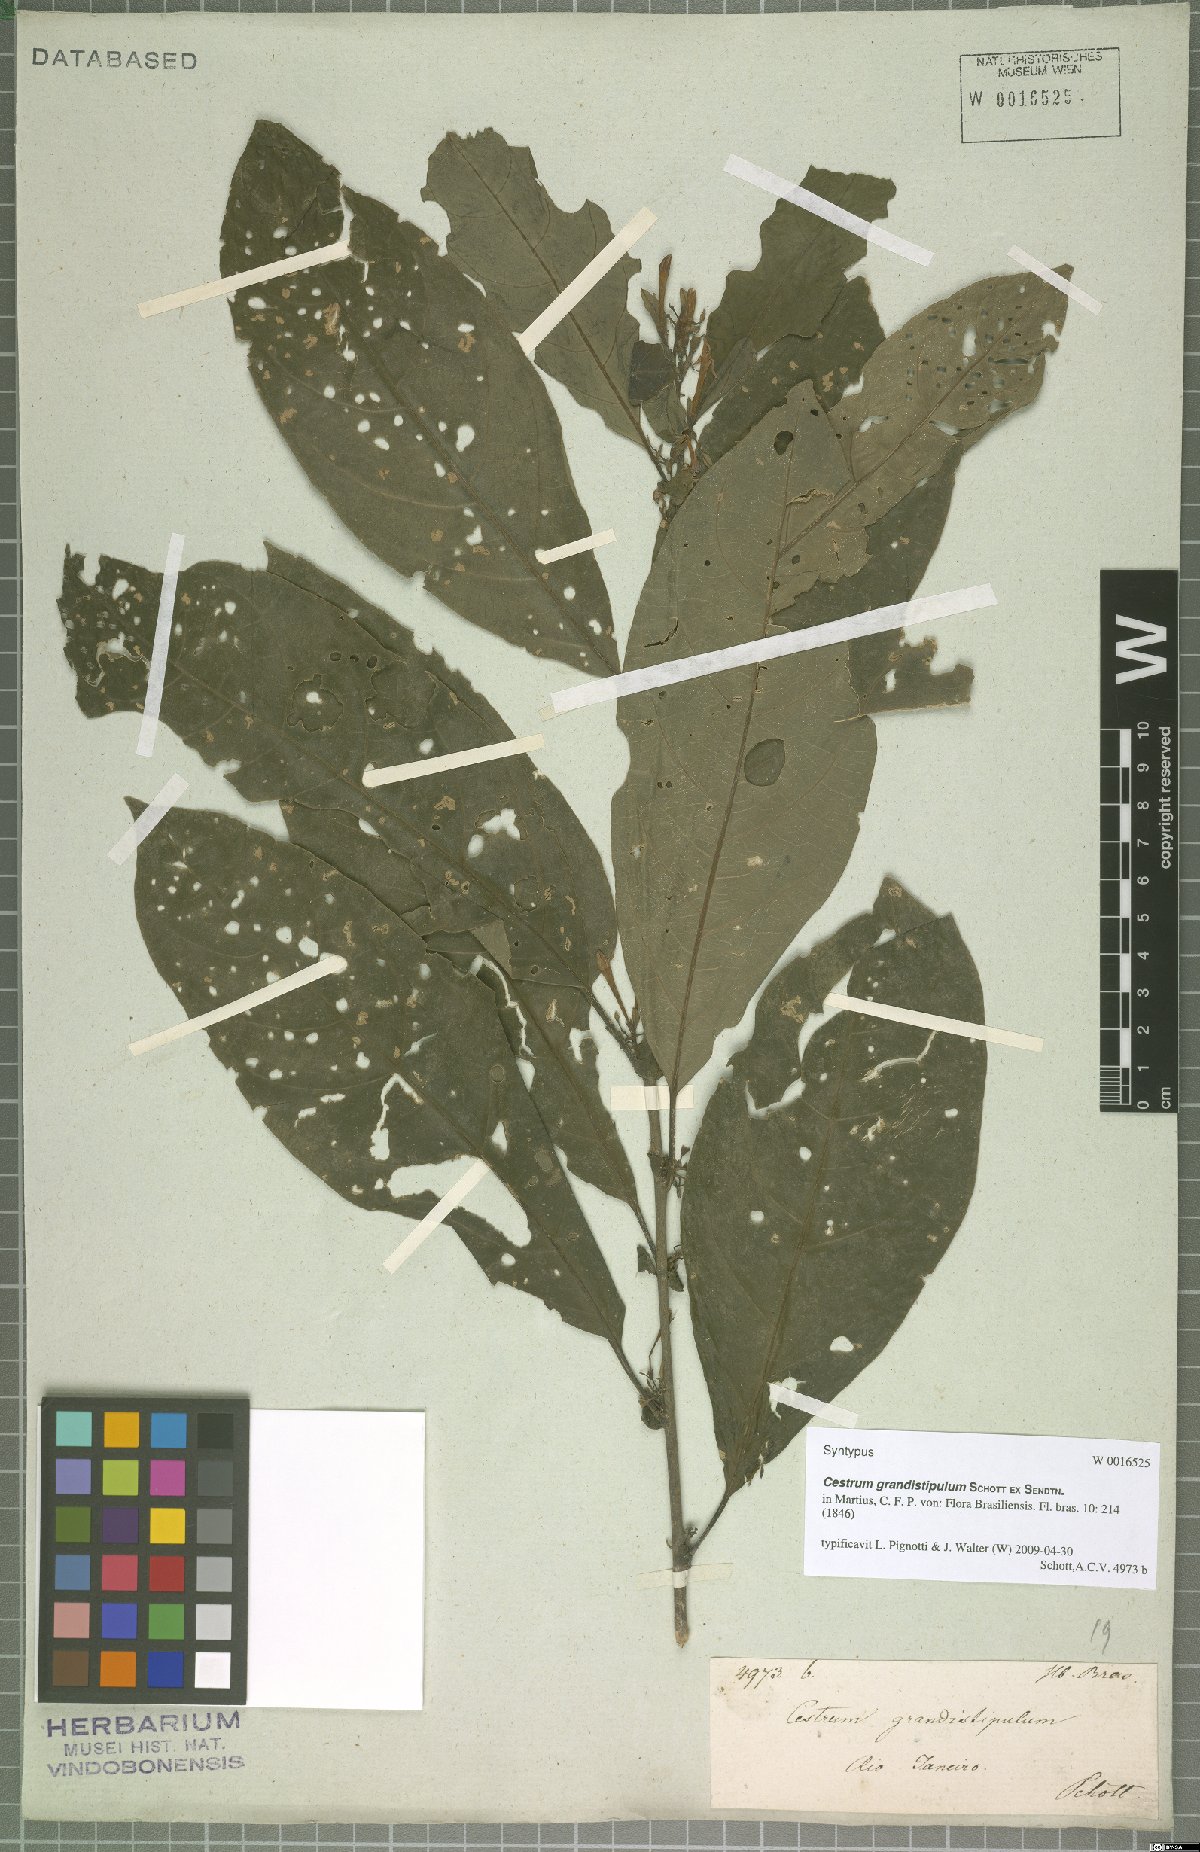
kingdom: Plantae
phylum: Tracheophyta
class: Magnoliopsida
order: Solanales
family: Solanaceae
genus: Cestrum
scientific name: Cestrum corcovadense
